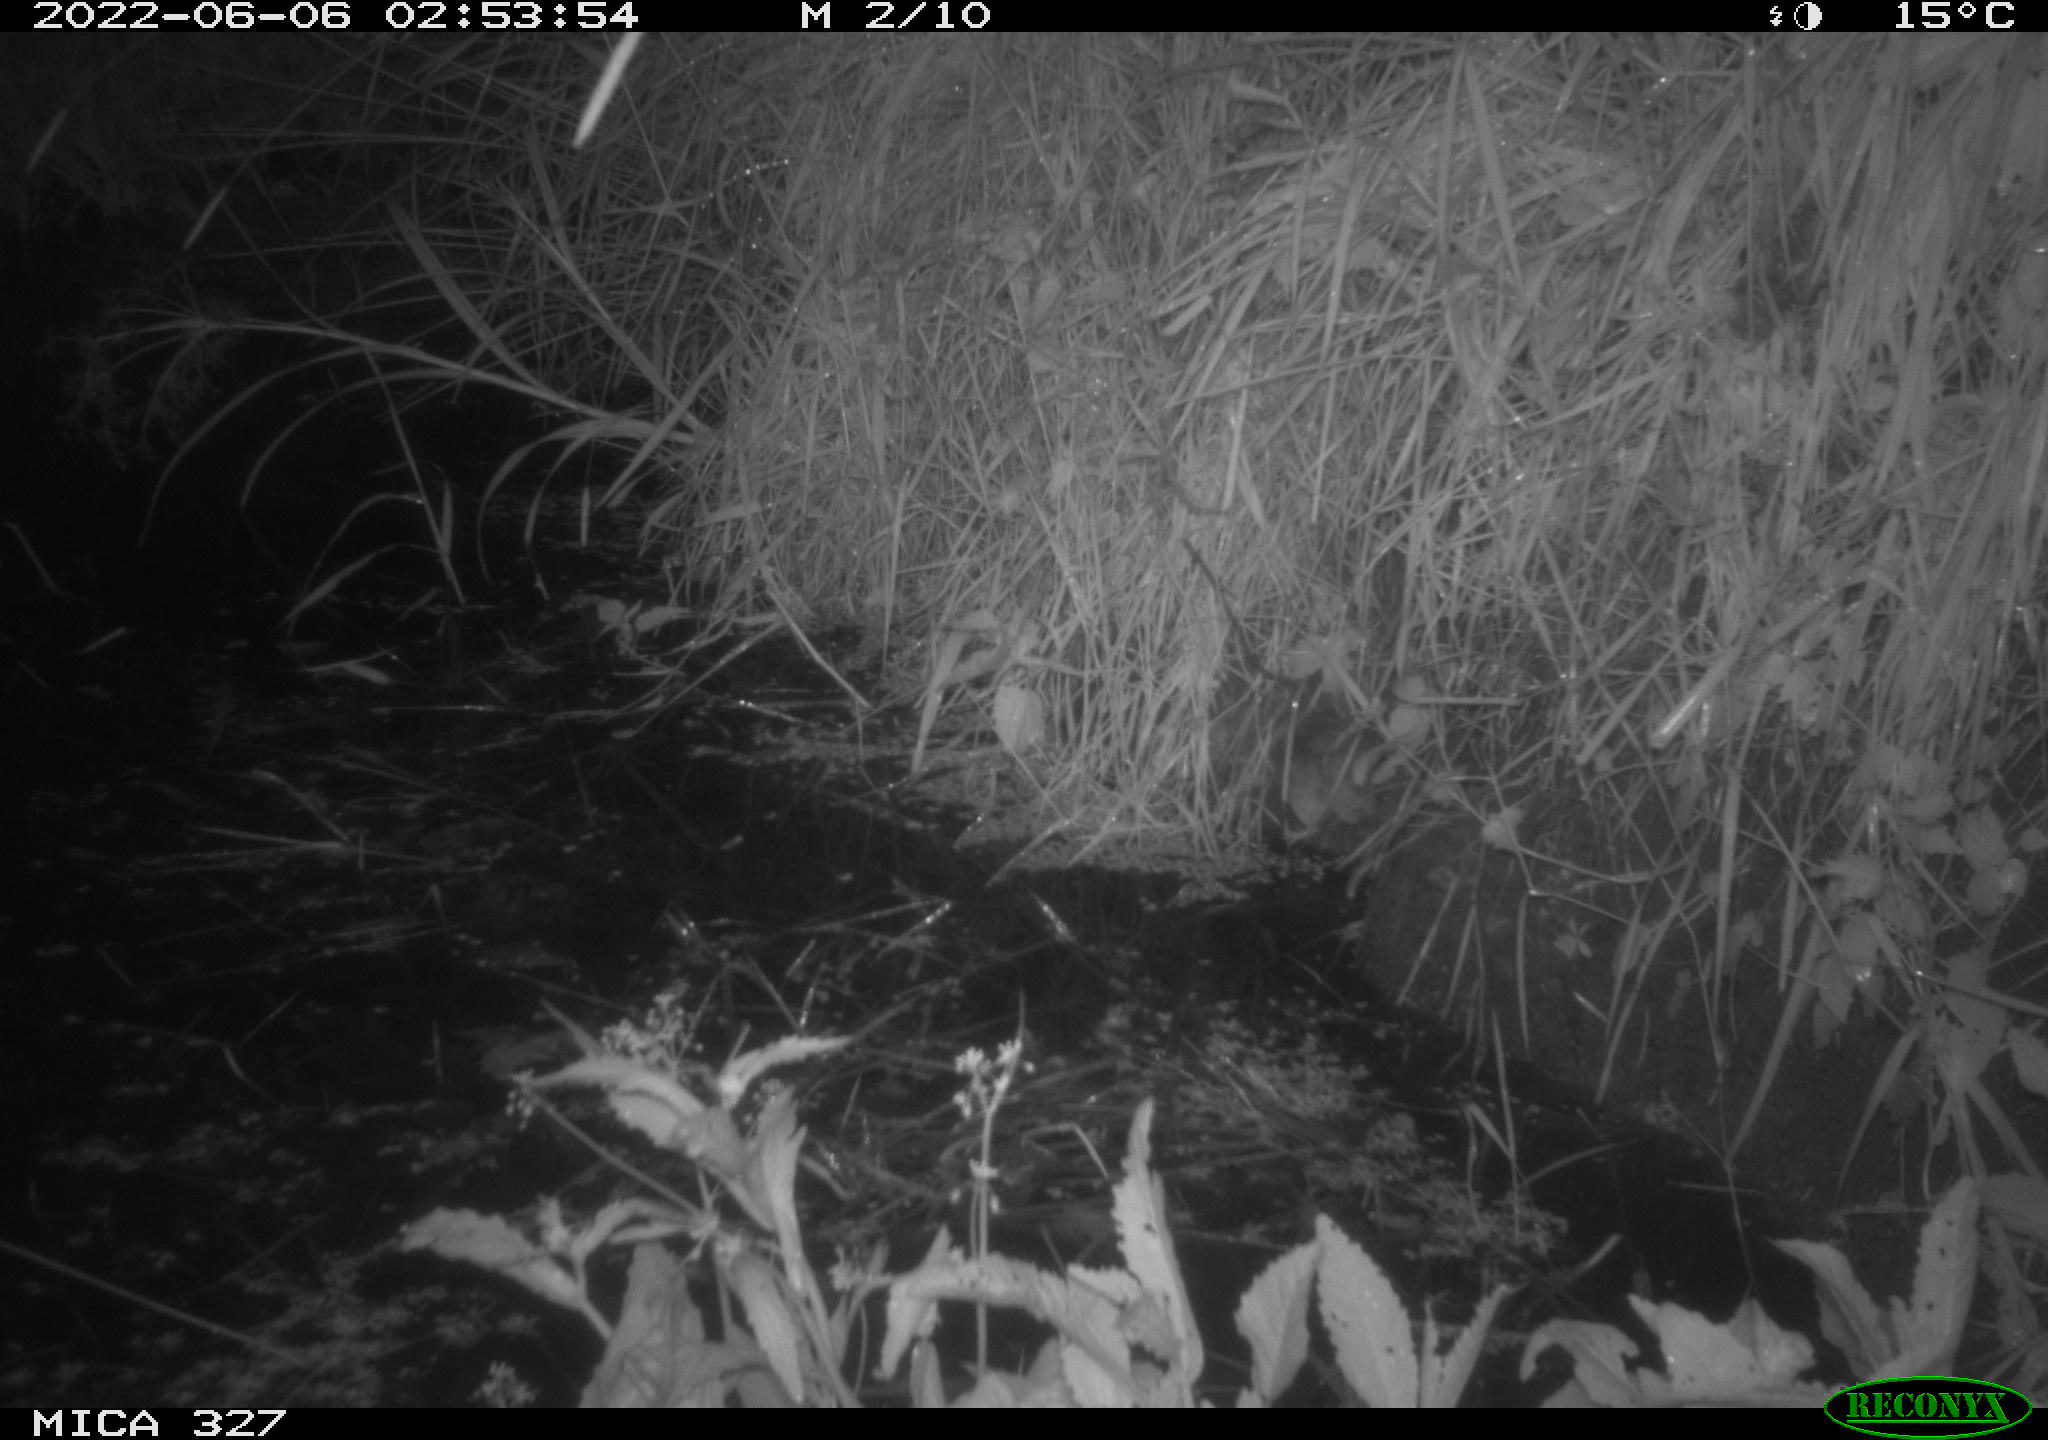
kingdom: Animalia
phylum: Chordata
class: Mammalia
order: Rodentia
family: Muridae
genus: Rattus
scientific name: Rattus norvegicus
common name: Brown rat
